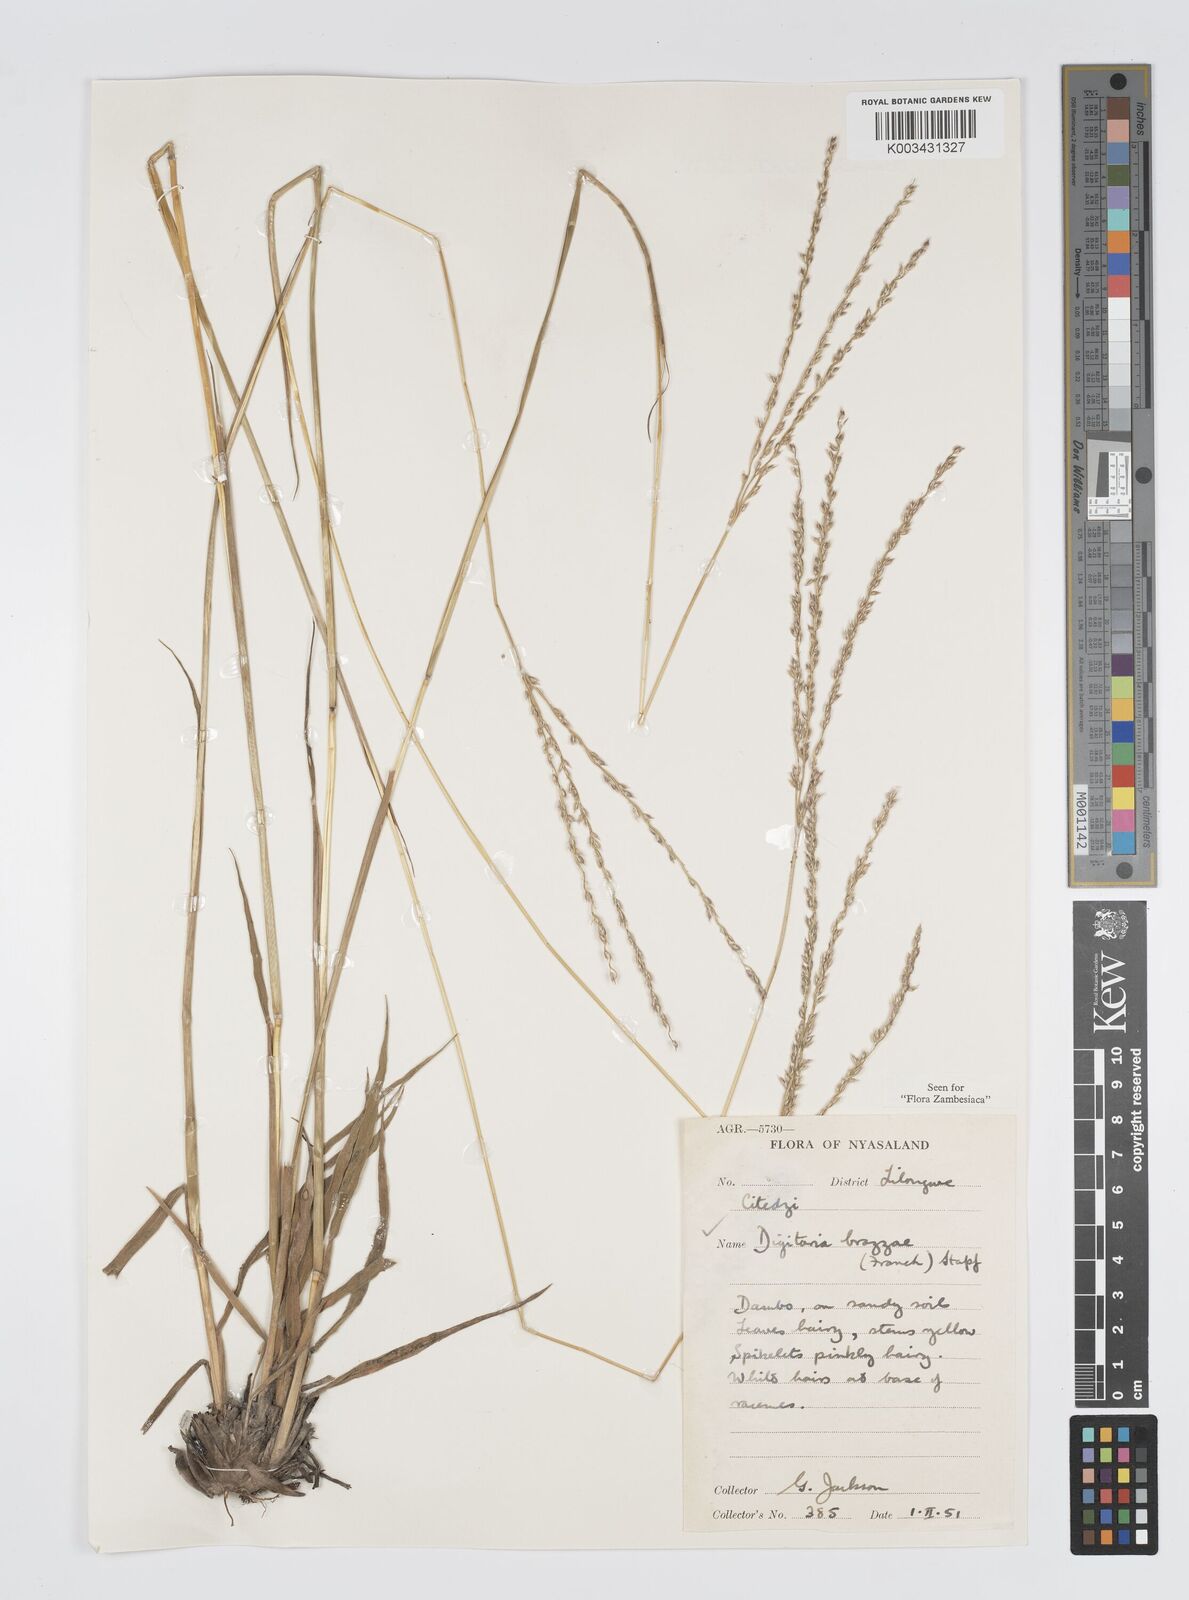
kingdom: Plantae
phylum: Tracheophyta
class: Liliopsida
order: Poales
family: Poaceae
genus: Digitaria
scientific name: Digitaria brazzae
